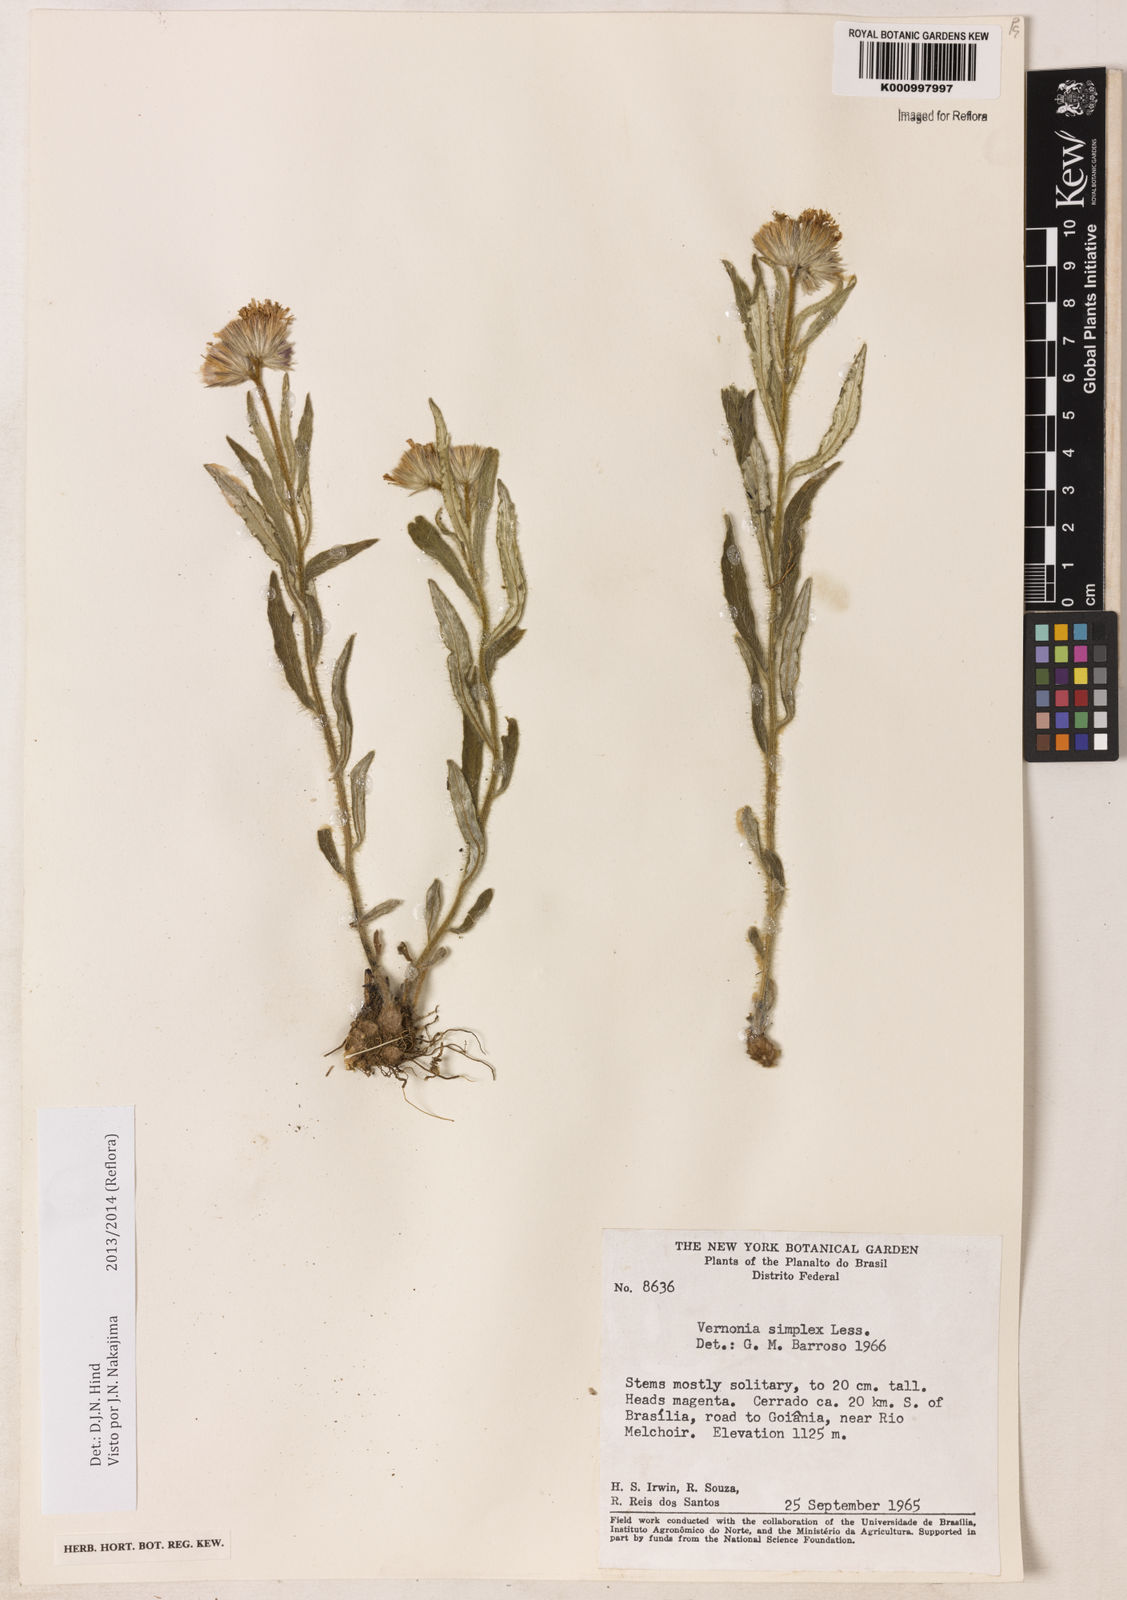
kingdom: Plantae
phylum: Tracheophyta
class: Magnoliopsida
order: Asterales
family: Asteraceae
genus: Chrysolaena
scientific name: Chrysolaena simplex
